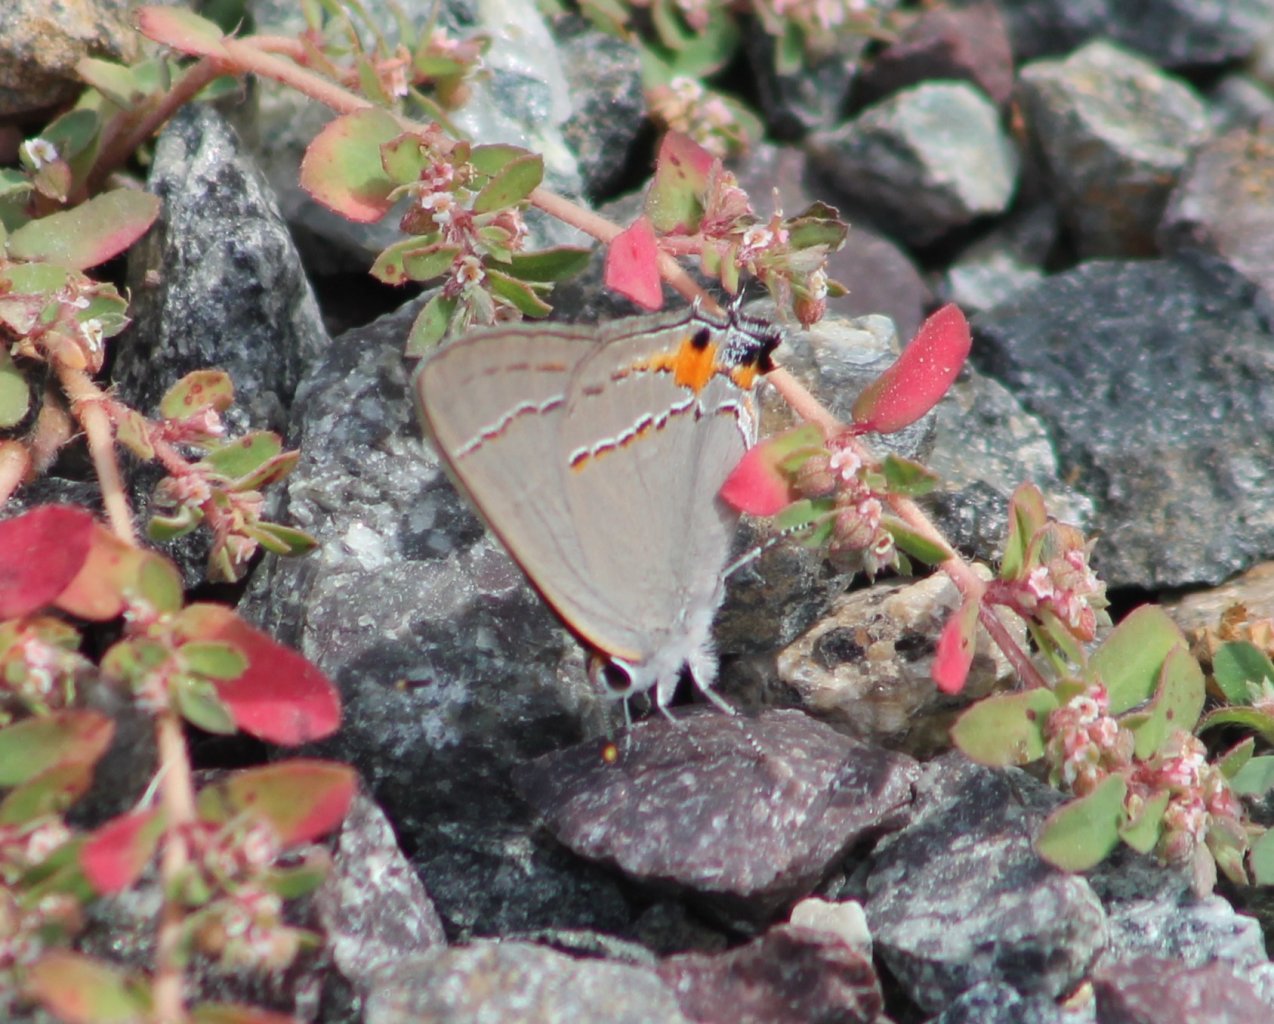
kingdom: Animalia
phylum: Arthropoda
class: Insecta
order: Lepidoptera
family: Lycaenidae
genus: Strymon
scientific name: Strymon melinus
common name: Gray Hairstreak
